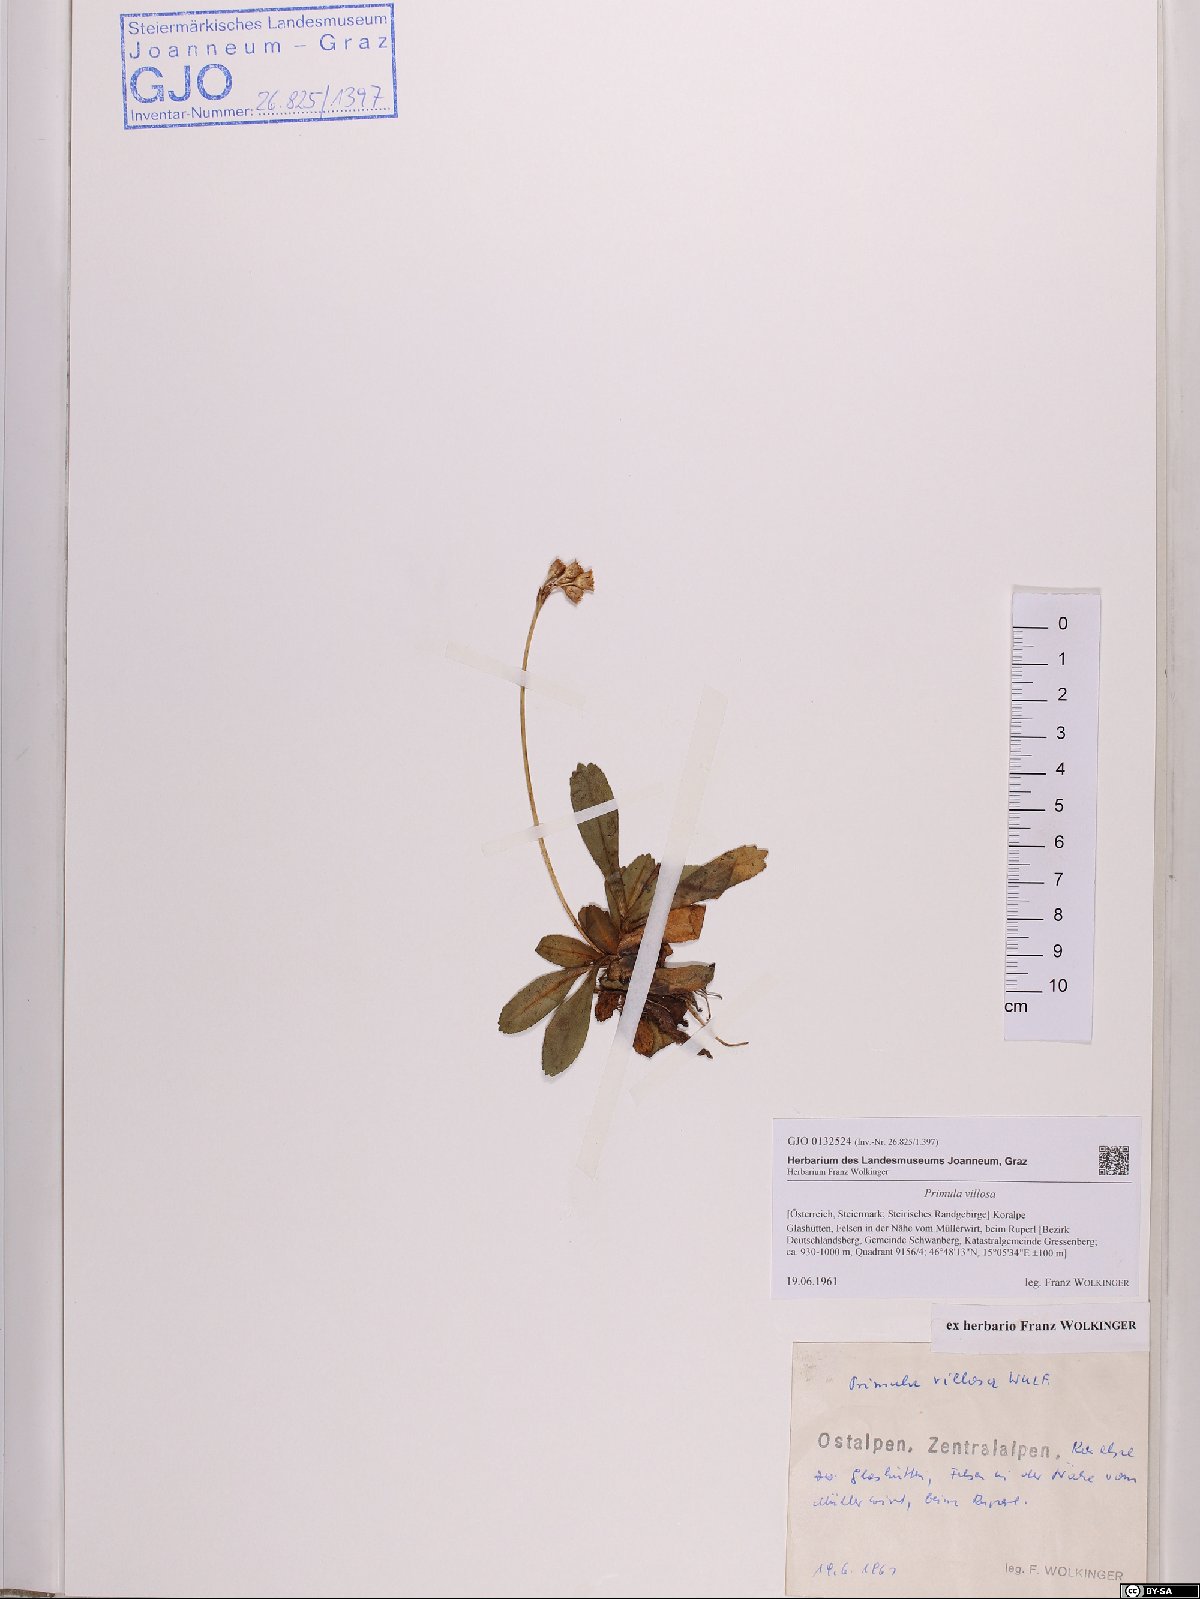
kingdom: Plantae
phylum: Tracheophyta
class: Magnoliopsida
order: Ericales
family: Primulaceae
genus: Primula
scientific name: Primula villosa
